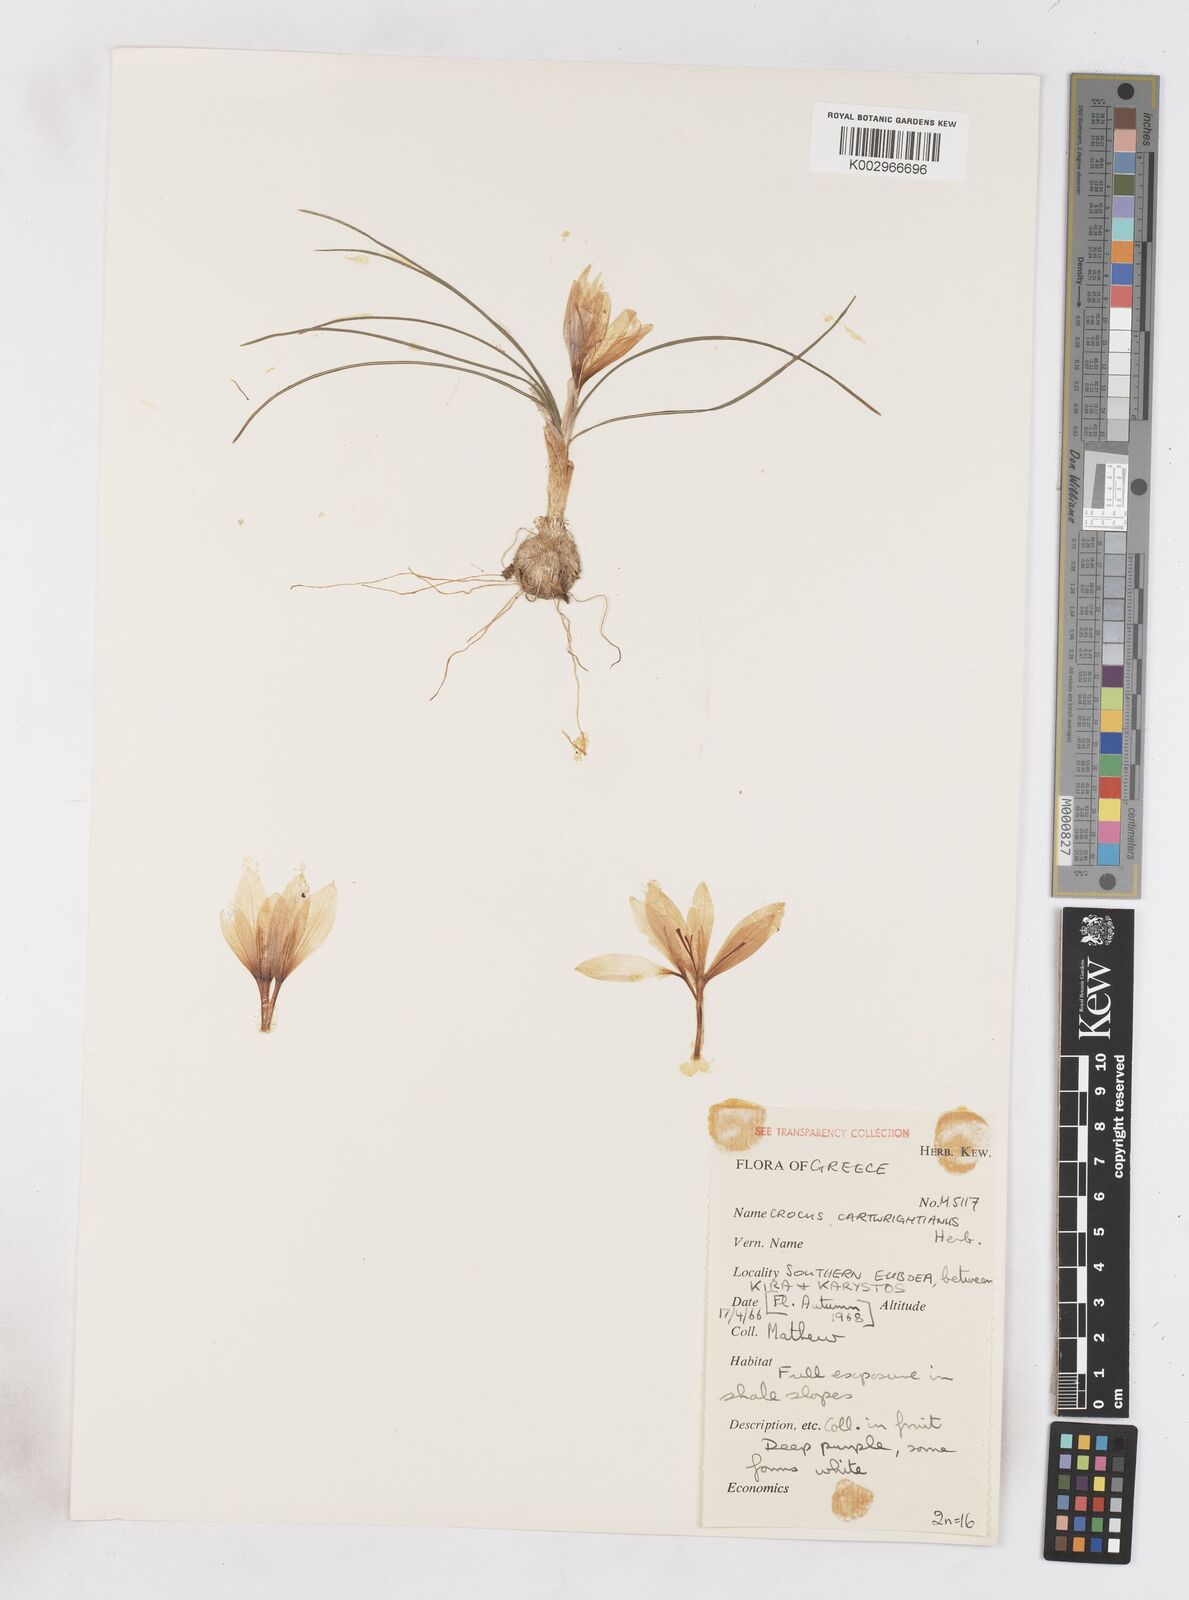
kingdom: Plantae
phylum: Tracheophyta
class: Liliopsida
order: Asparagales
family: Iridaceae
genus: Crocus
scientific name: Crocus cartwrightianus
